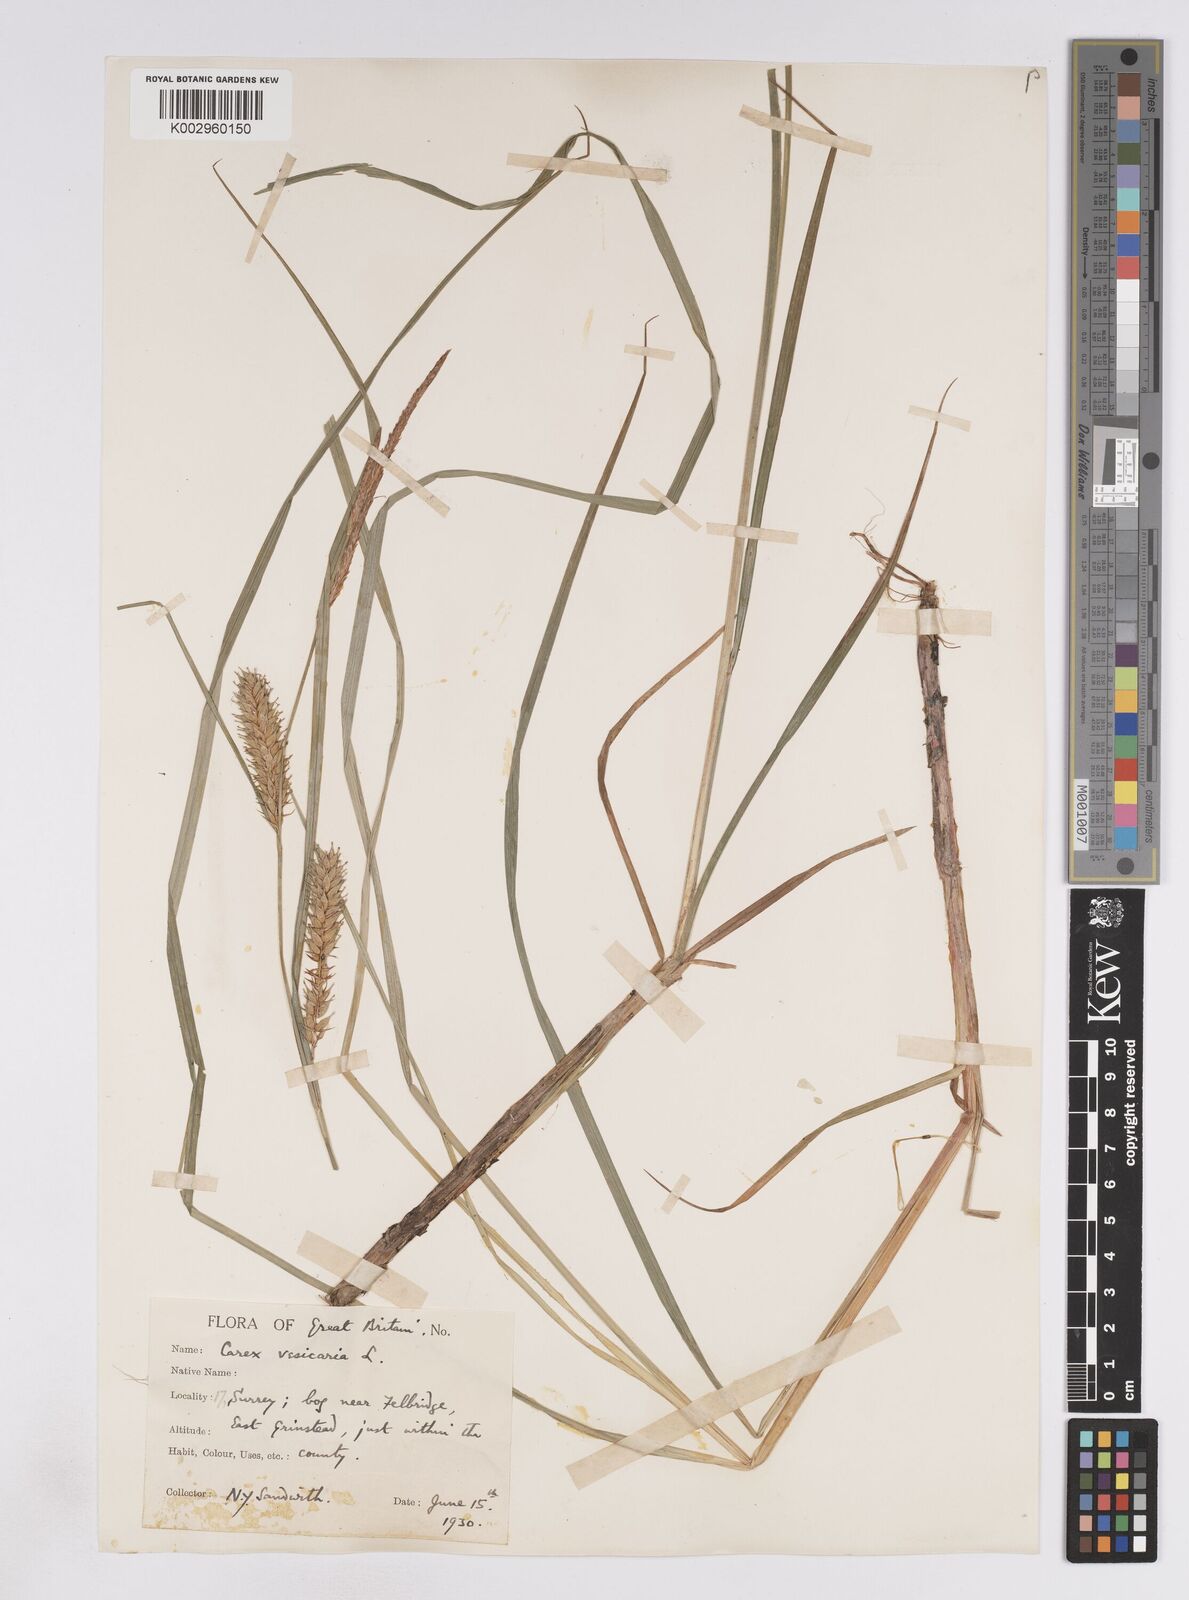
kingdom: Plantae
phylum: Tracheophyta
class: Liliopsida
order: Poales
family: Cyperaceae
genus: Carex
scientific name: Carex vesicaria
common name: Bladder-sedge
